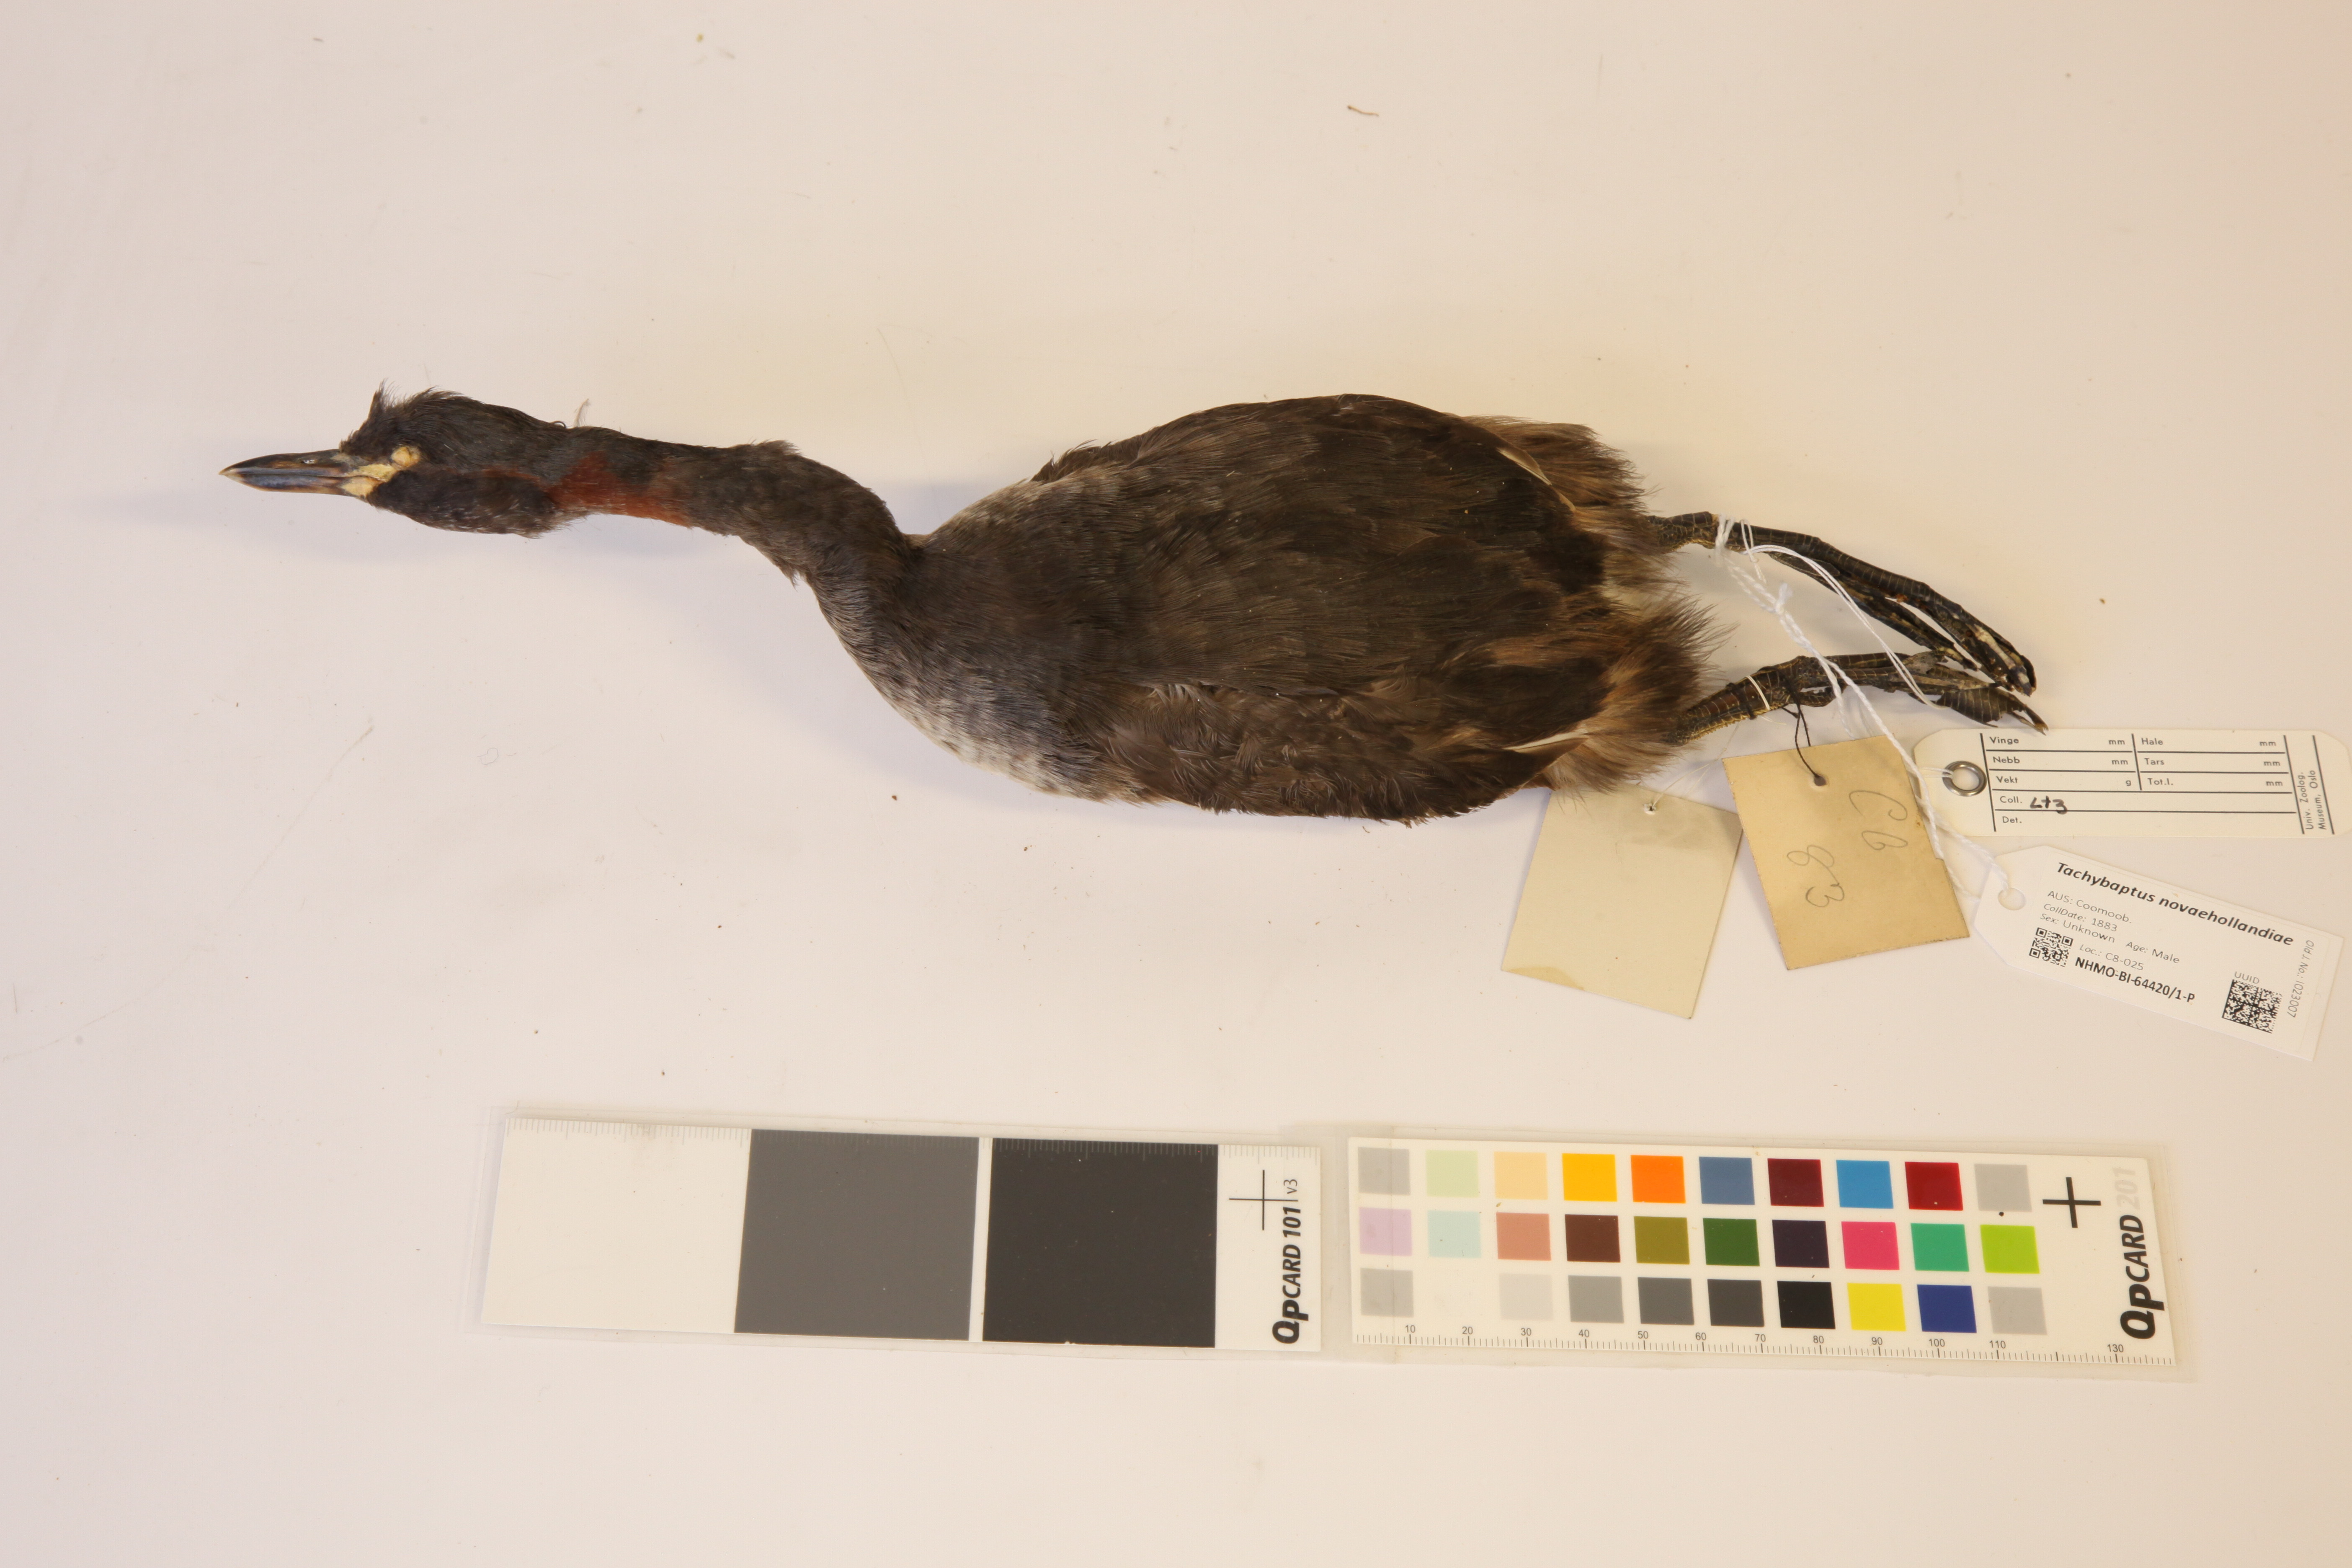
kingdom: Animalia
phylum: Chordata
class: Aves
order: Podicipediformes
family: Podicipedidae
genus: Tachybaptus
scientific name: Tachybaptus novaehollandiae
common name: Australasian grebe
